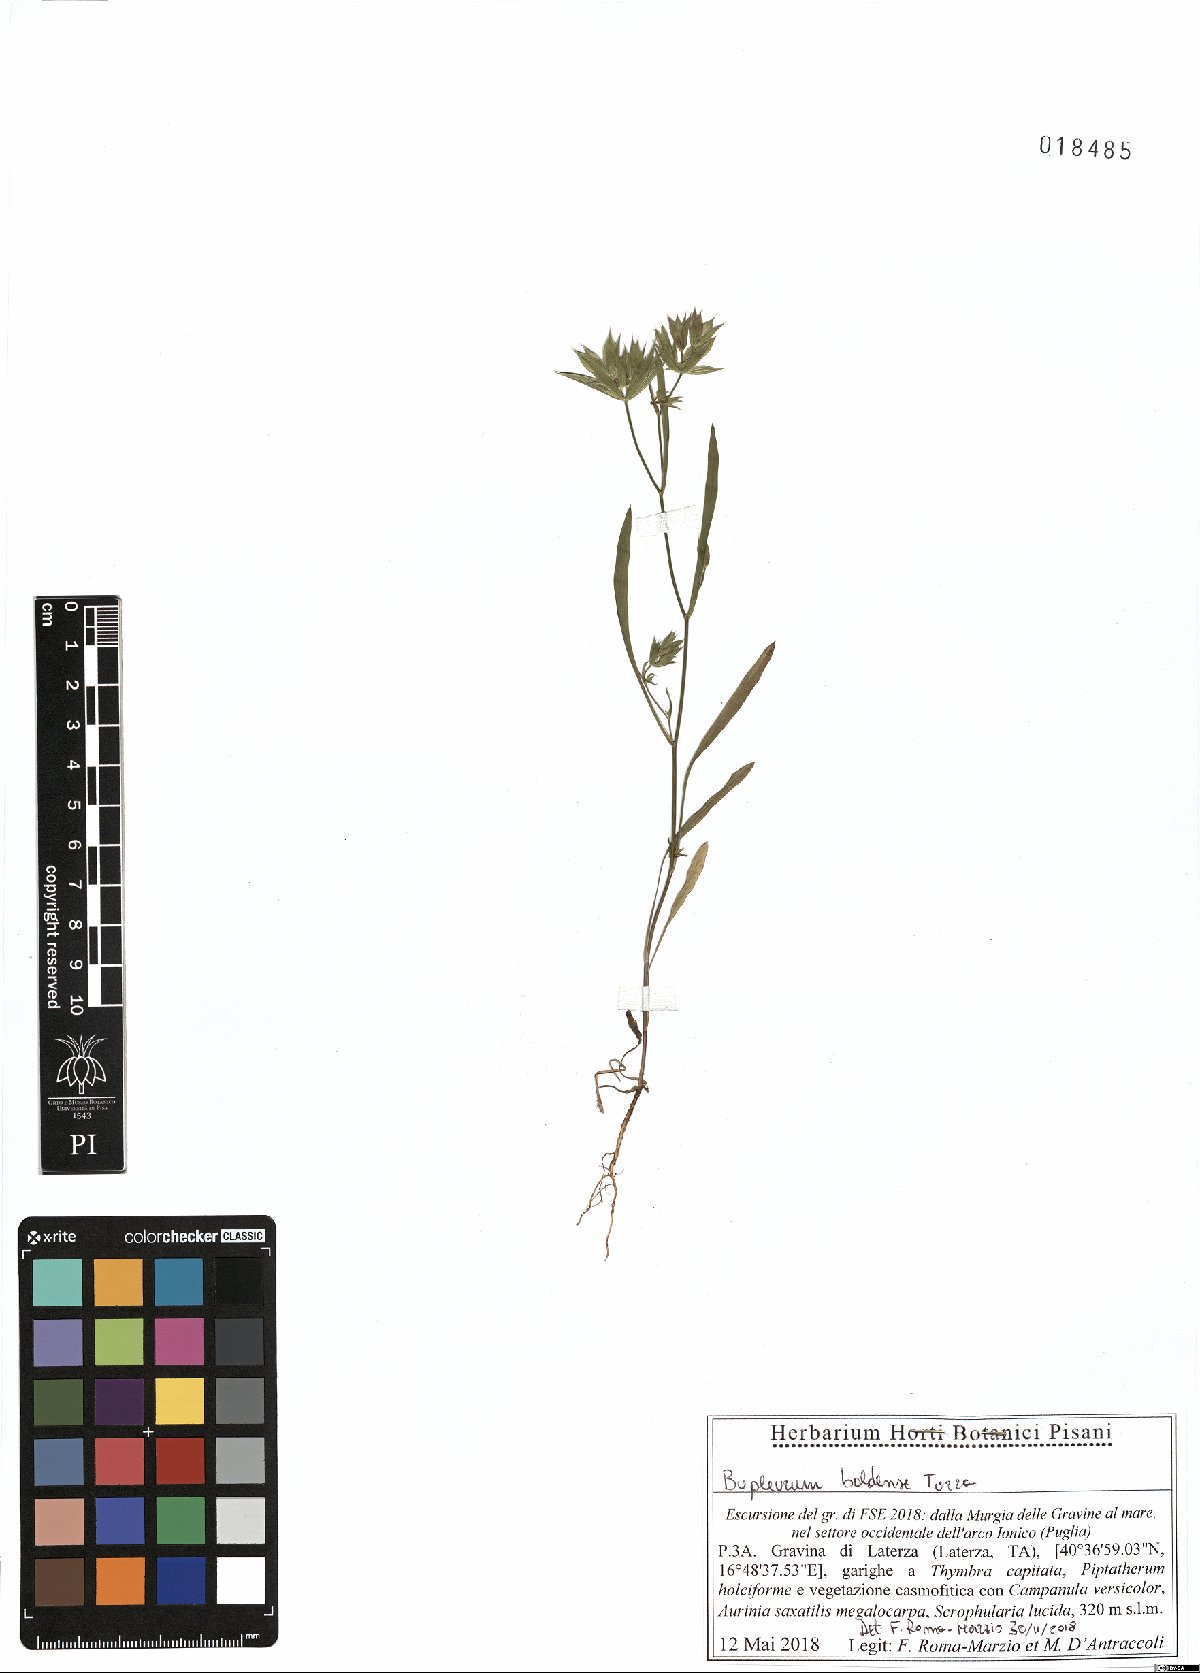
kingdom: Plantae
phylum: Tracheophyta
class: Magnoliopsida
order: Apiales
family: Apiaceae
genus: Bupleurum
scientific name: Bupleurum baldense
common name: Small hare's-ear
